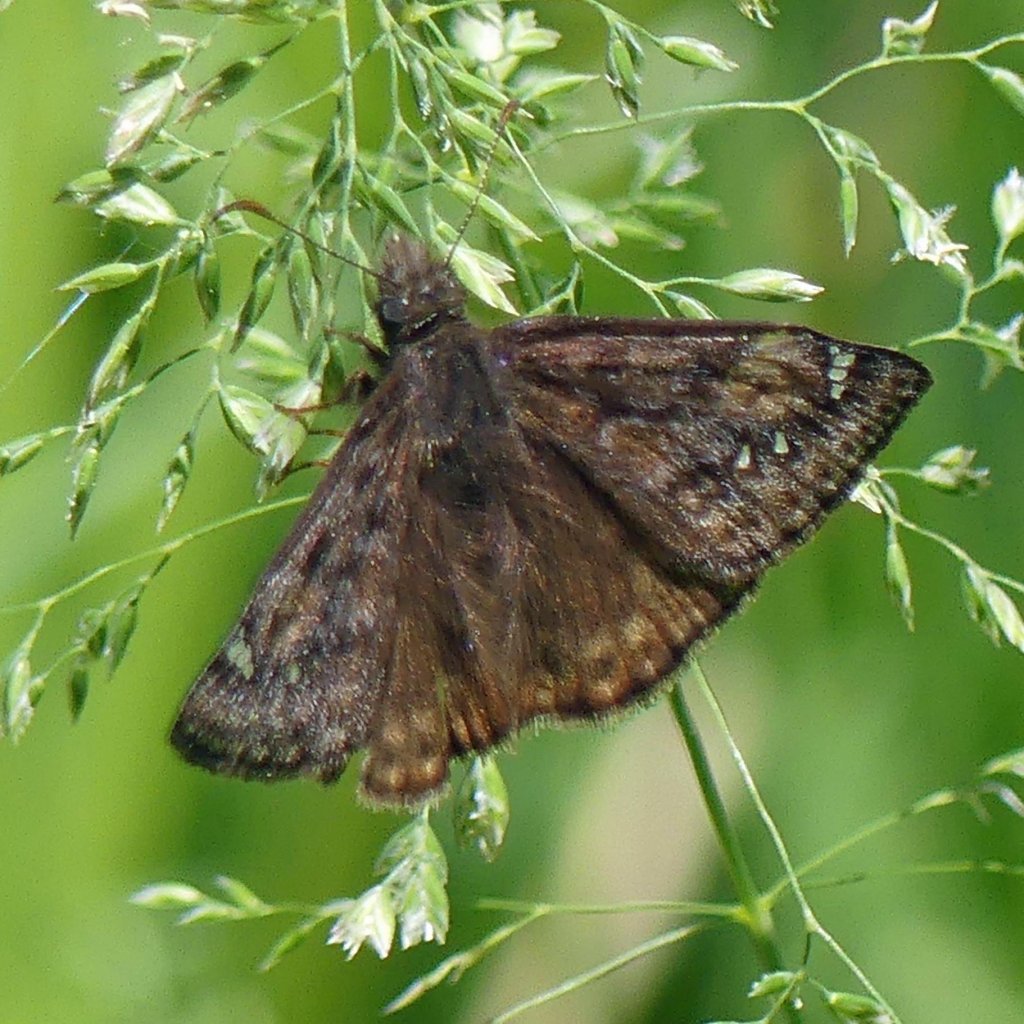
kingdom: Animalia
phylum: Arthropoda
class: Insecta
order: Lepidoptera
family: Hesperiidae
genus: Gesta
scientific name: Gesta
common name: Wild Indigo Duskywing
